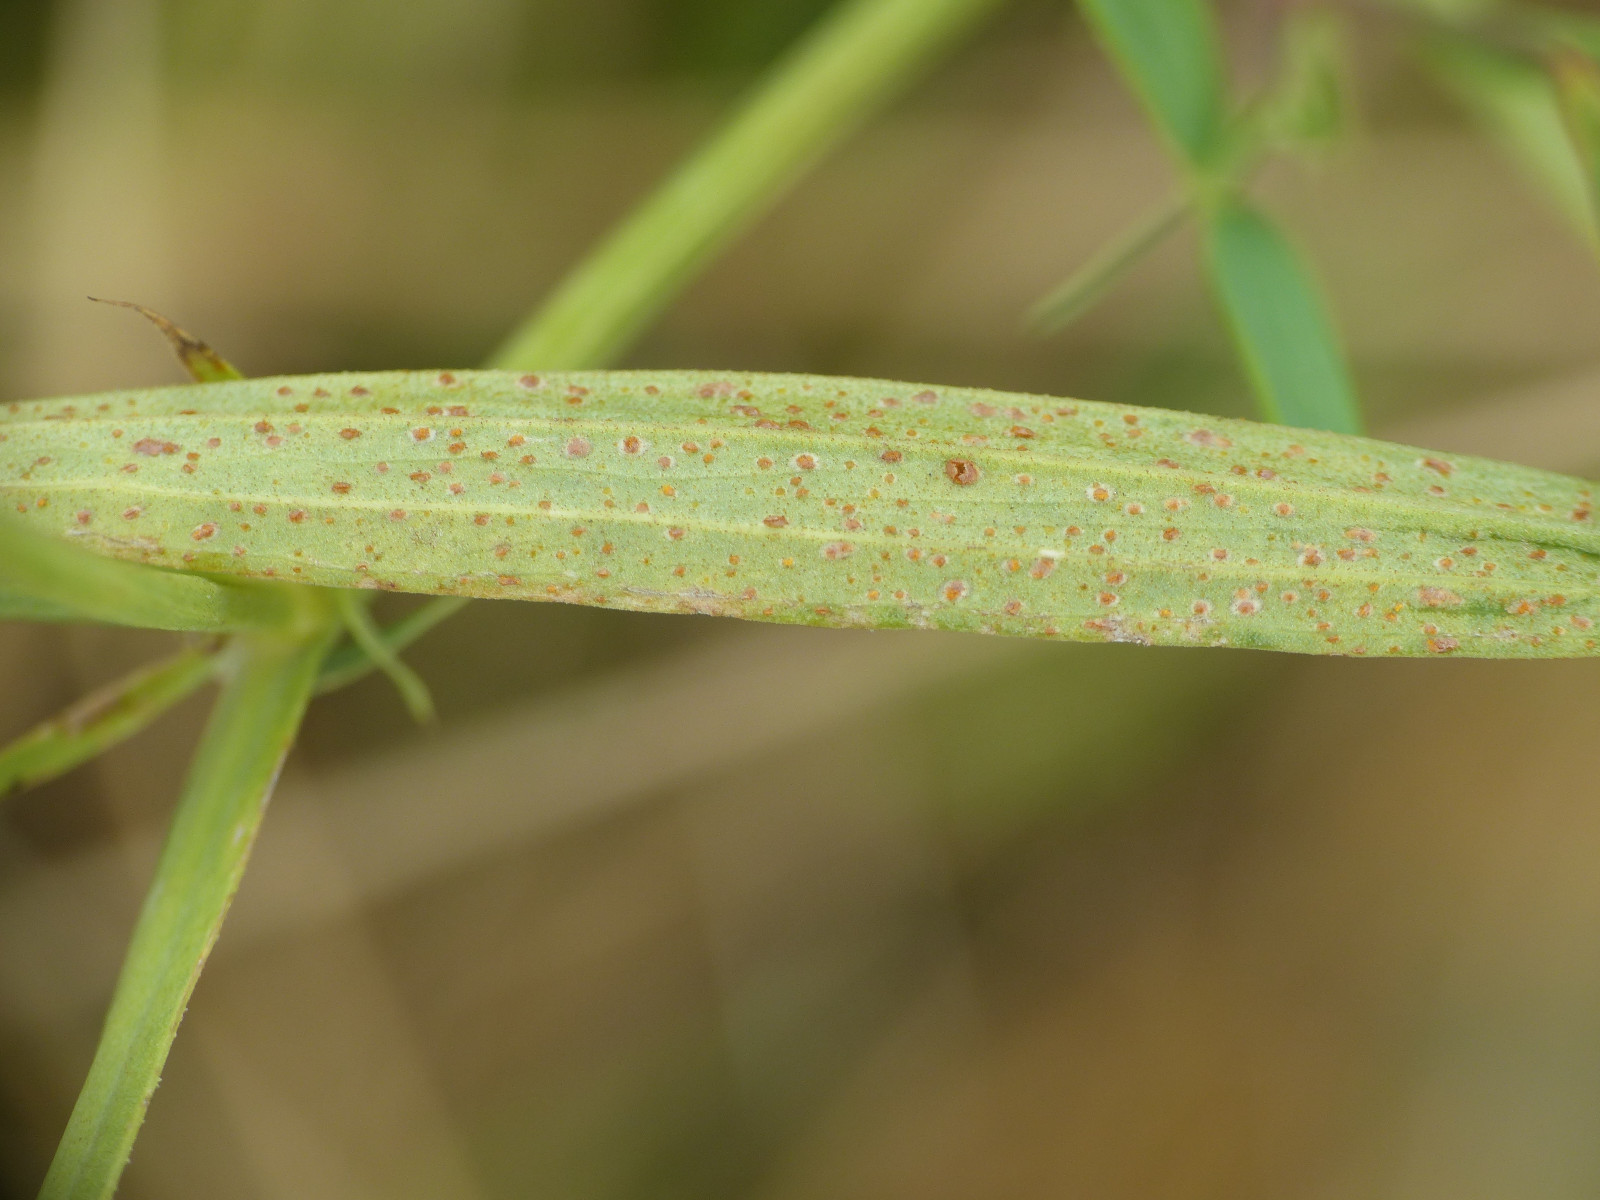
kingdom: Fungi
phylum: Basidiomycota
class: Pucciniomycetes
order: Pucciniales
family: Pucciniaceae
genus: Uromyces
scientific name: Uromyces pisi-sativi
